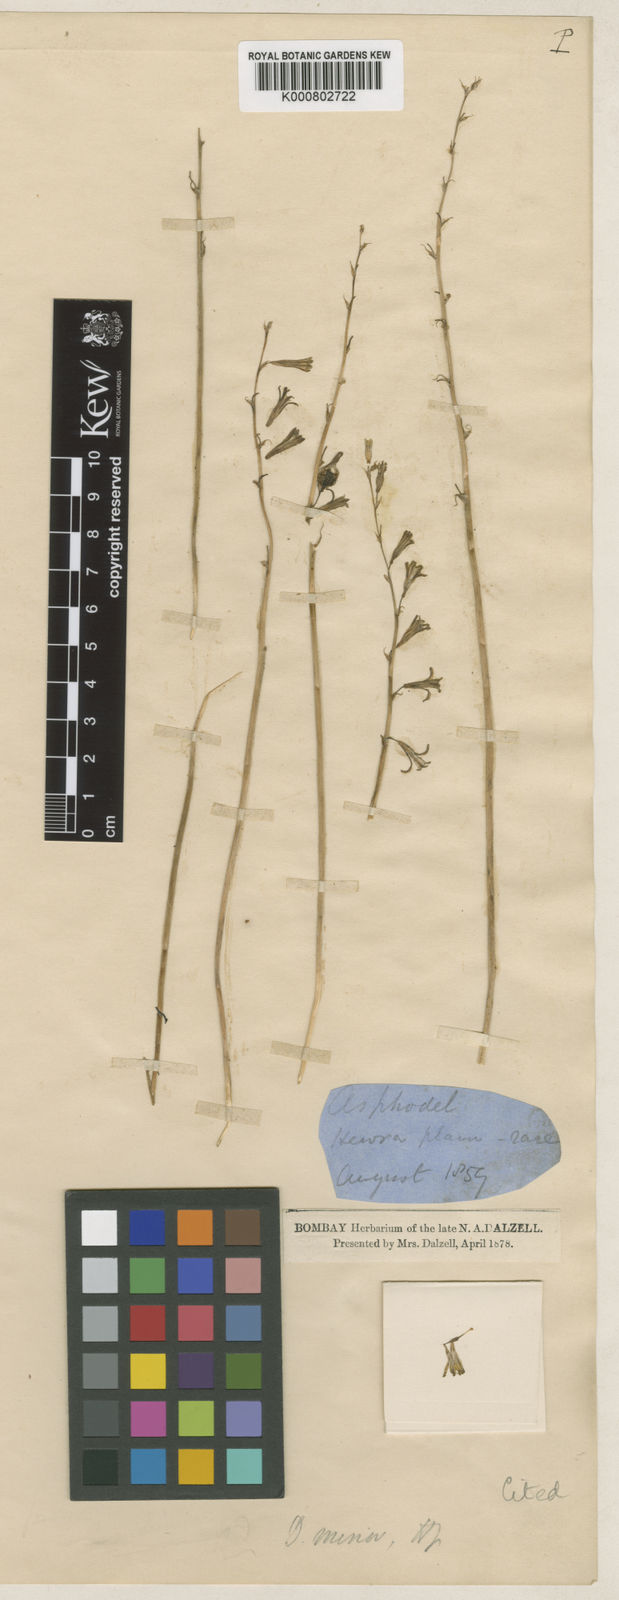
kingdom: Plantae
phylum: Tracheophyta
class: Liliopsida
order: Asparagales
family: Asparagaceae
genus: Dipcadi
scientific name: Dipcadi minor
